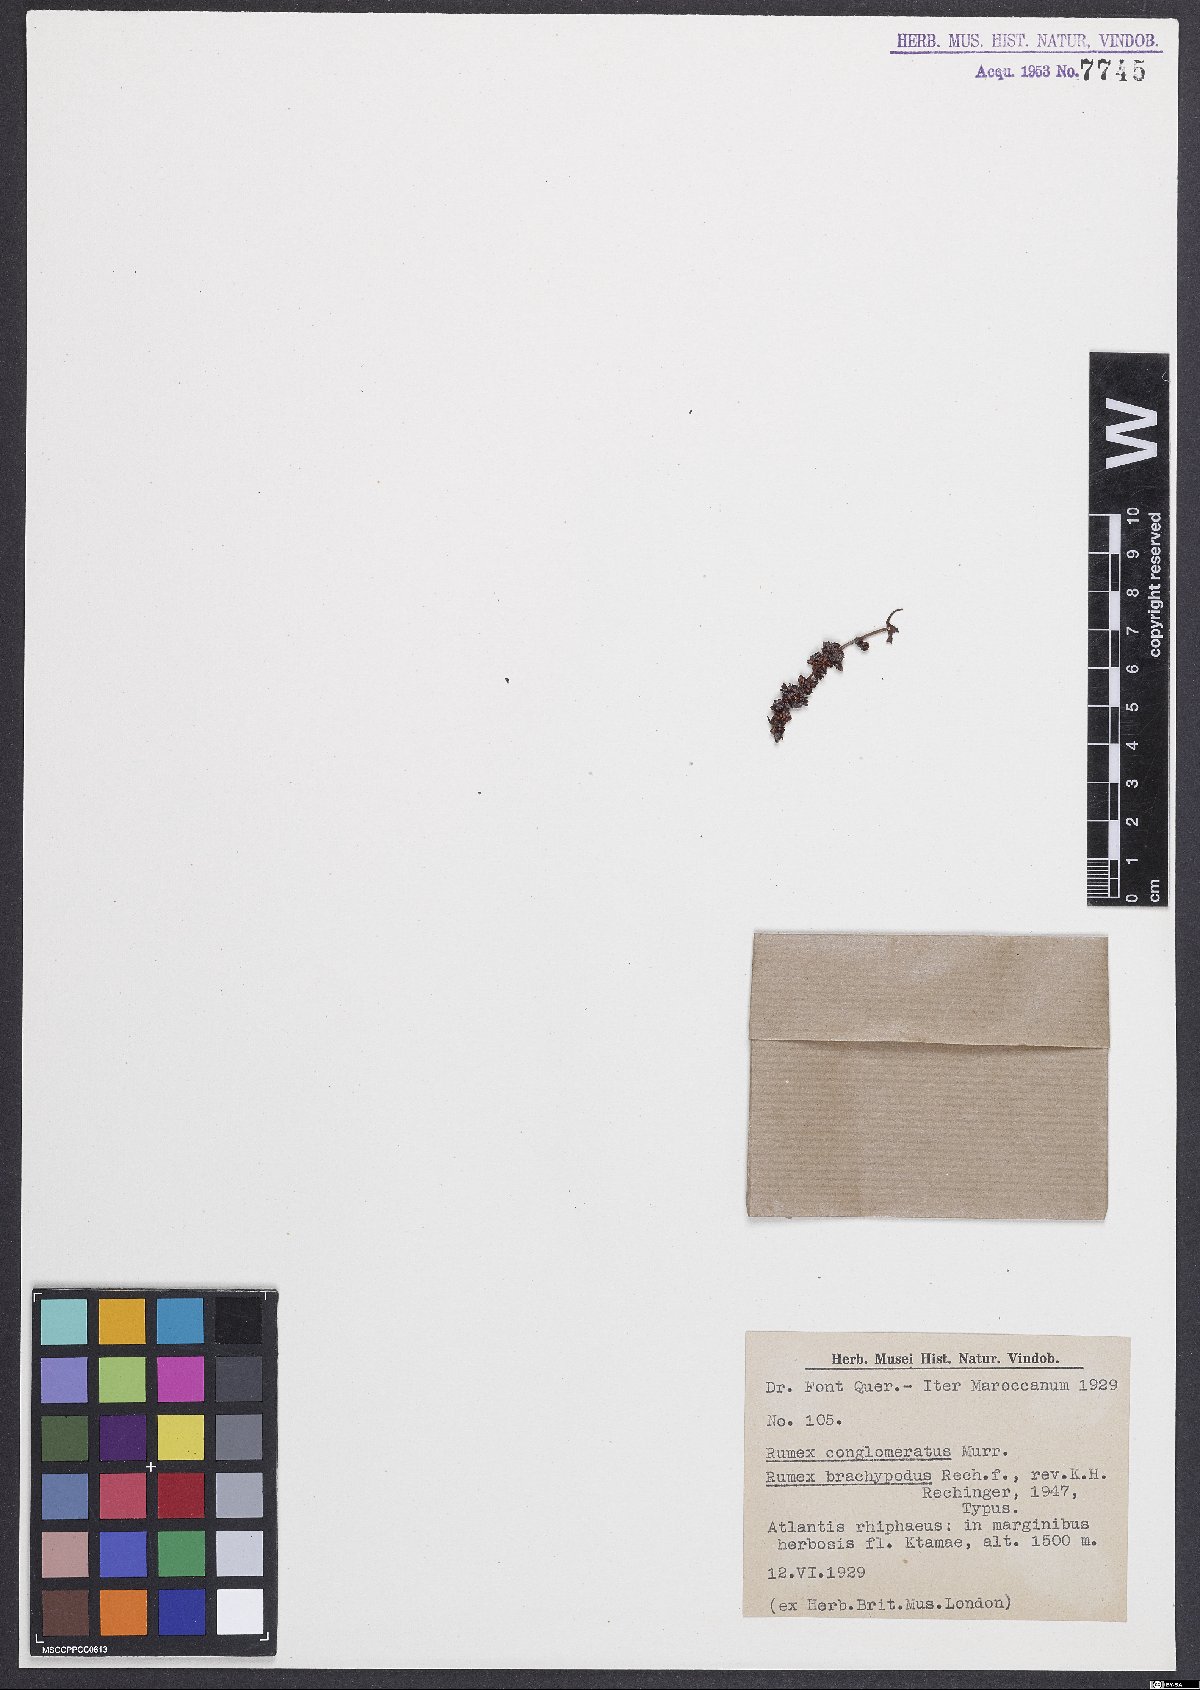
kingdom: Plantae
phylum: Tracheophyta
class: Magnoliopsida
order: Caryophyllales
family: Polygonaceae
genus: Rumex
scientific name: Rumex brachypodus
